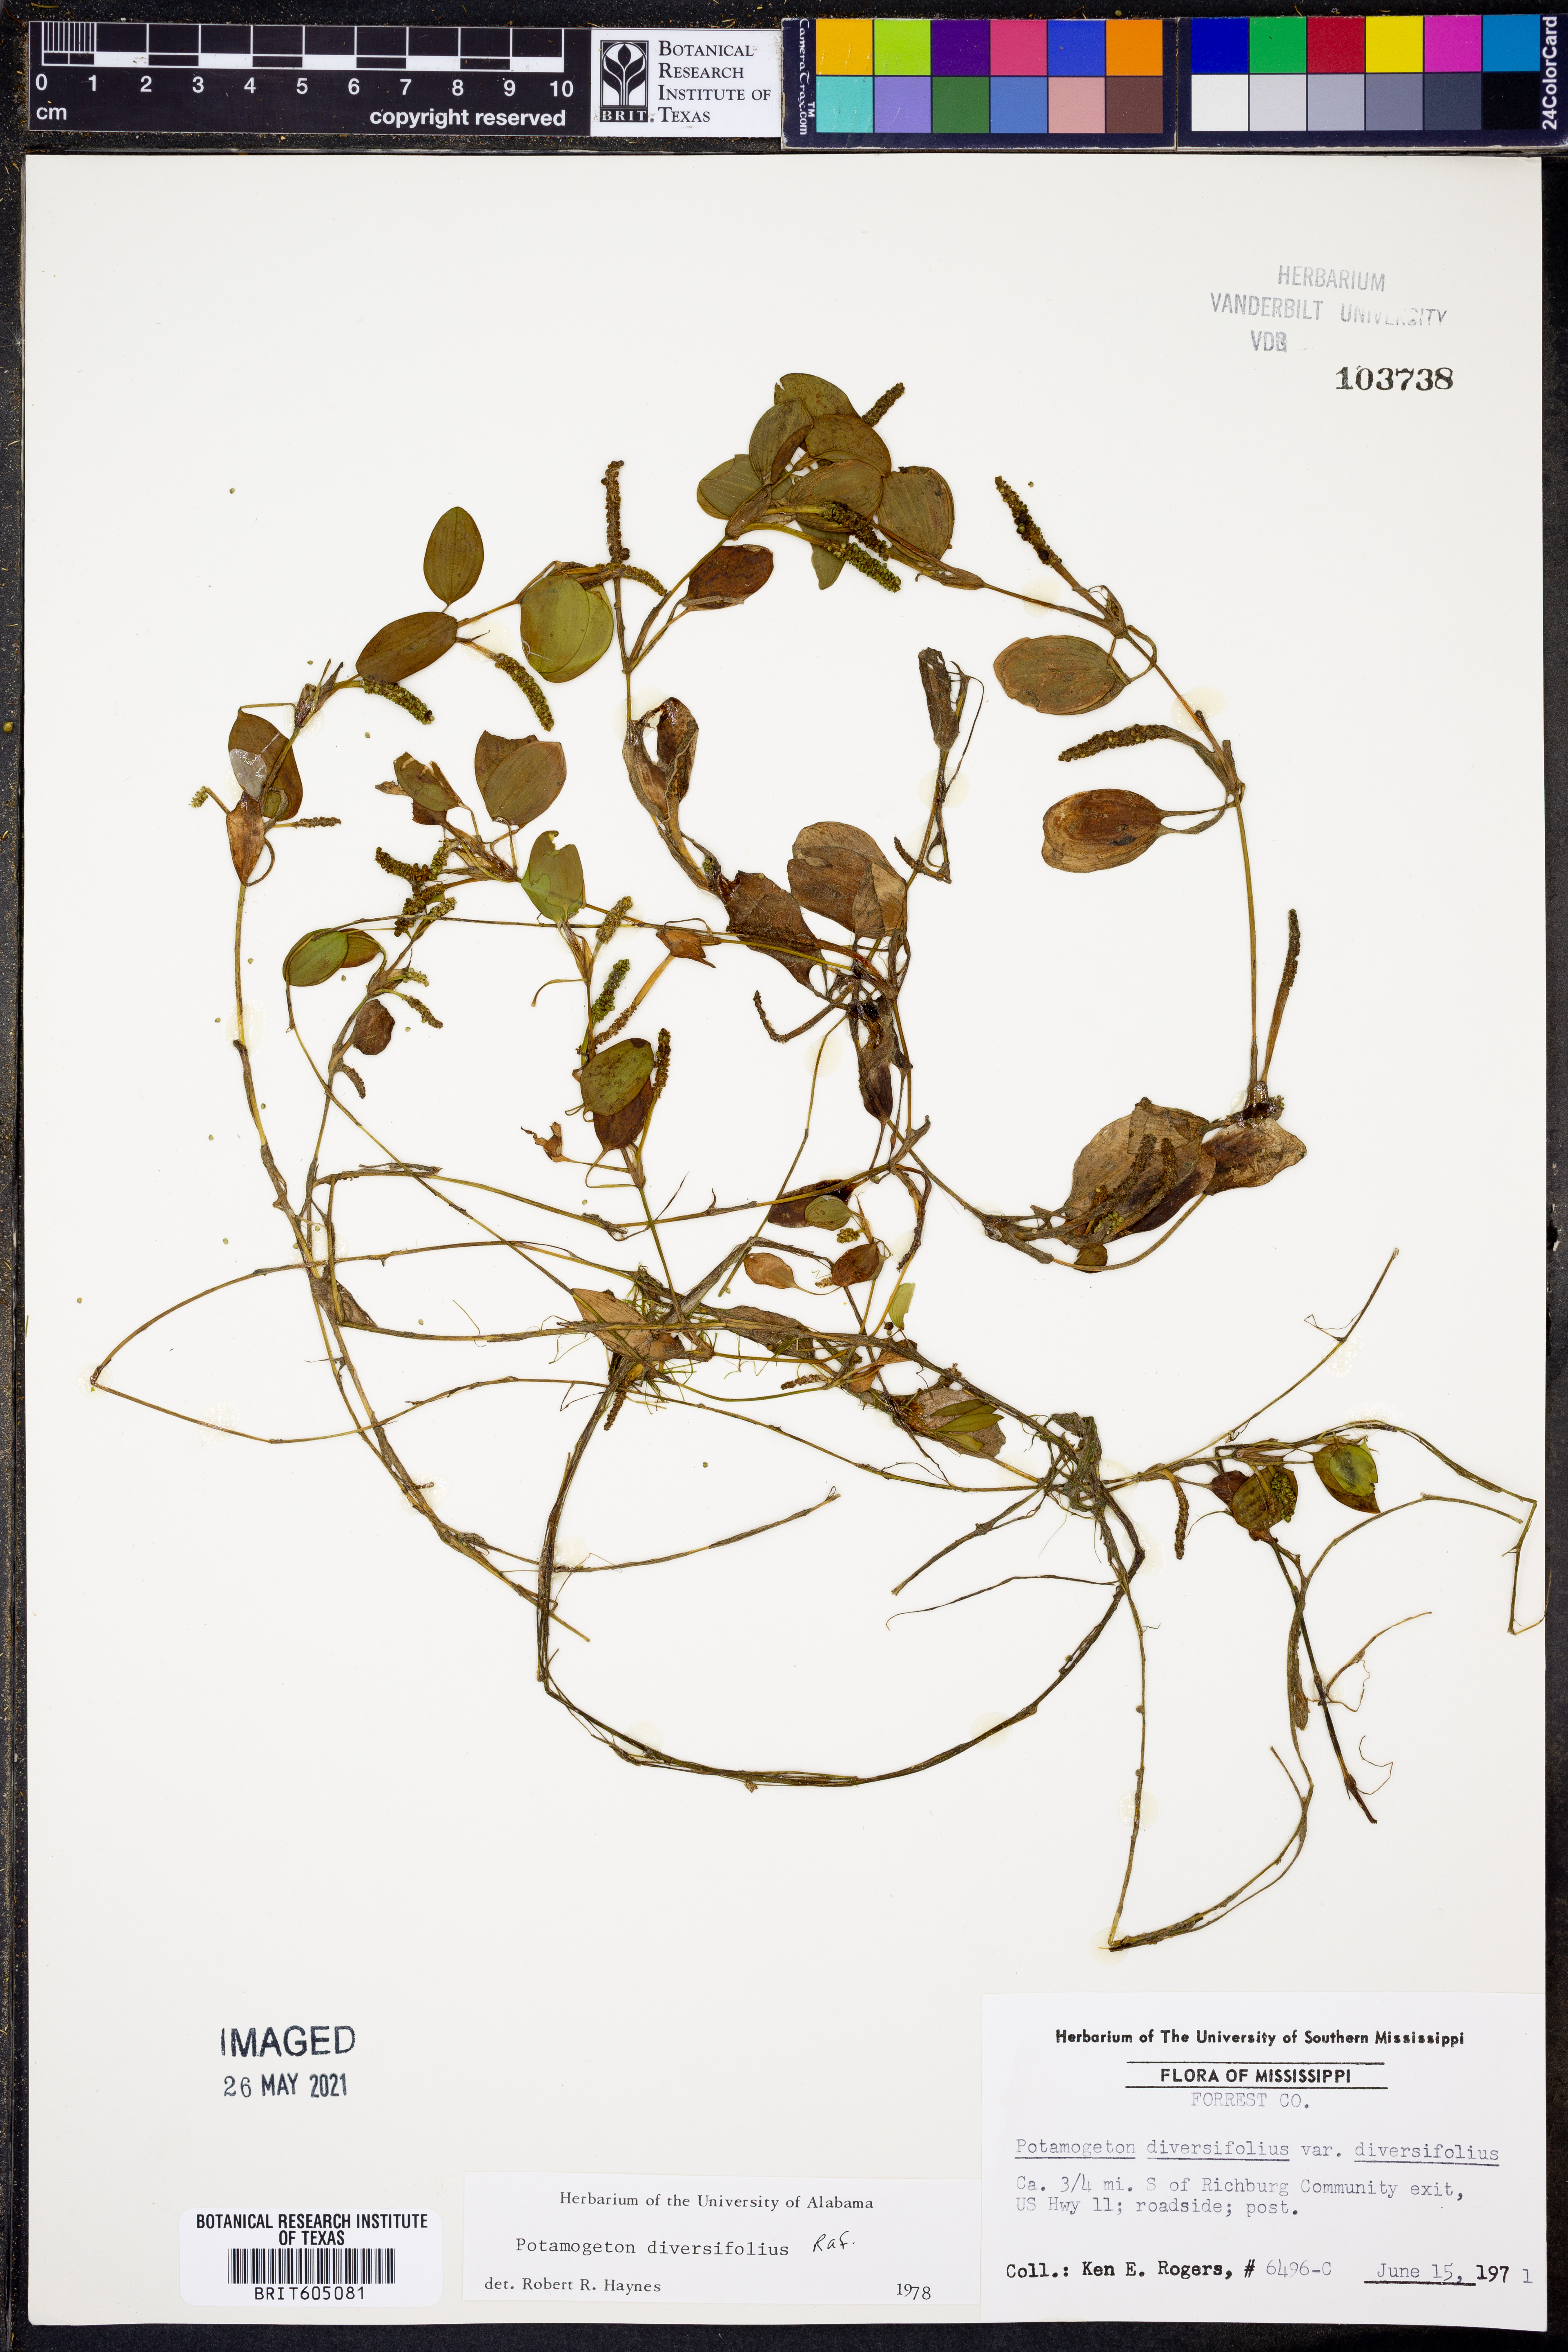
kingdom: Plantae
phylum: Tracheophyta
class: Liliopsida
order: Alismatales
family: Potamogetonaceae
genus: Potamogeton
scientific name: Potamogeton diversifolius
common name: Water-thread pondweed
